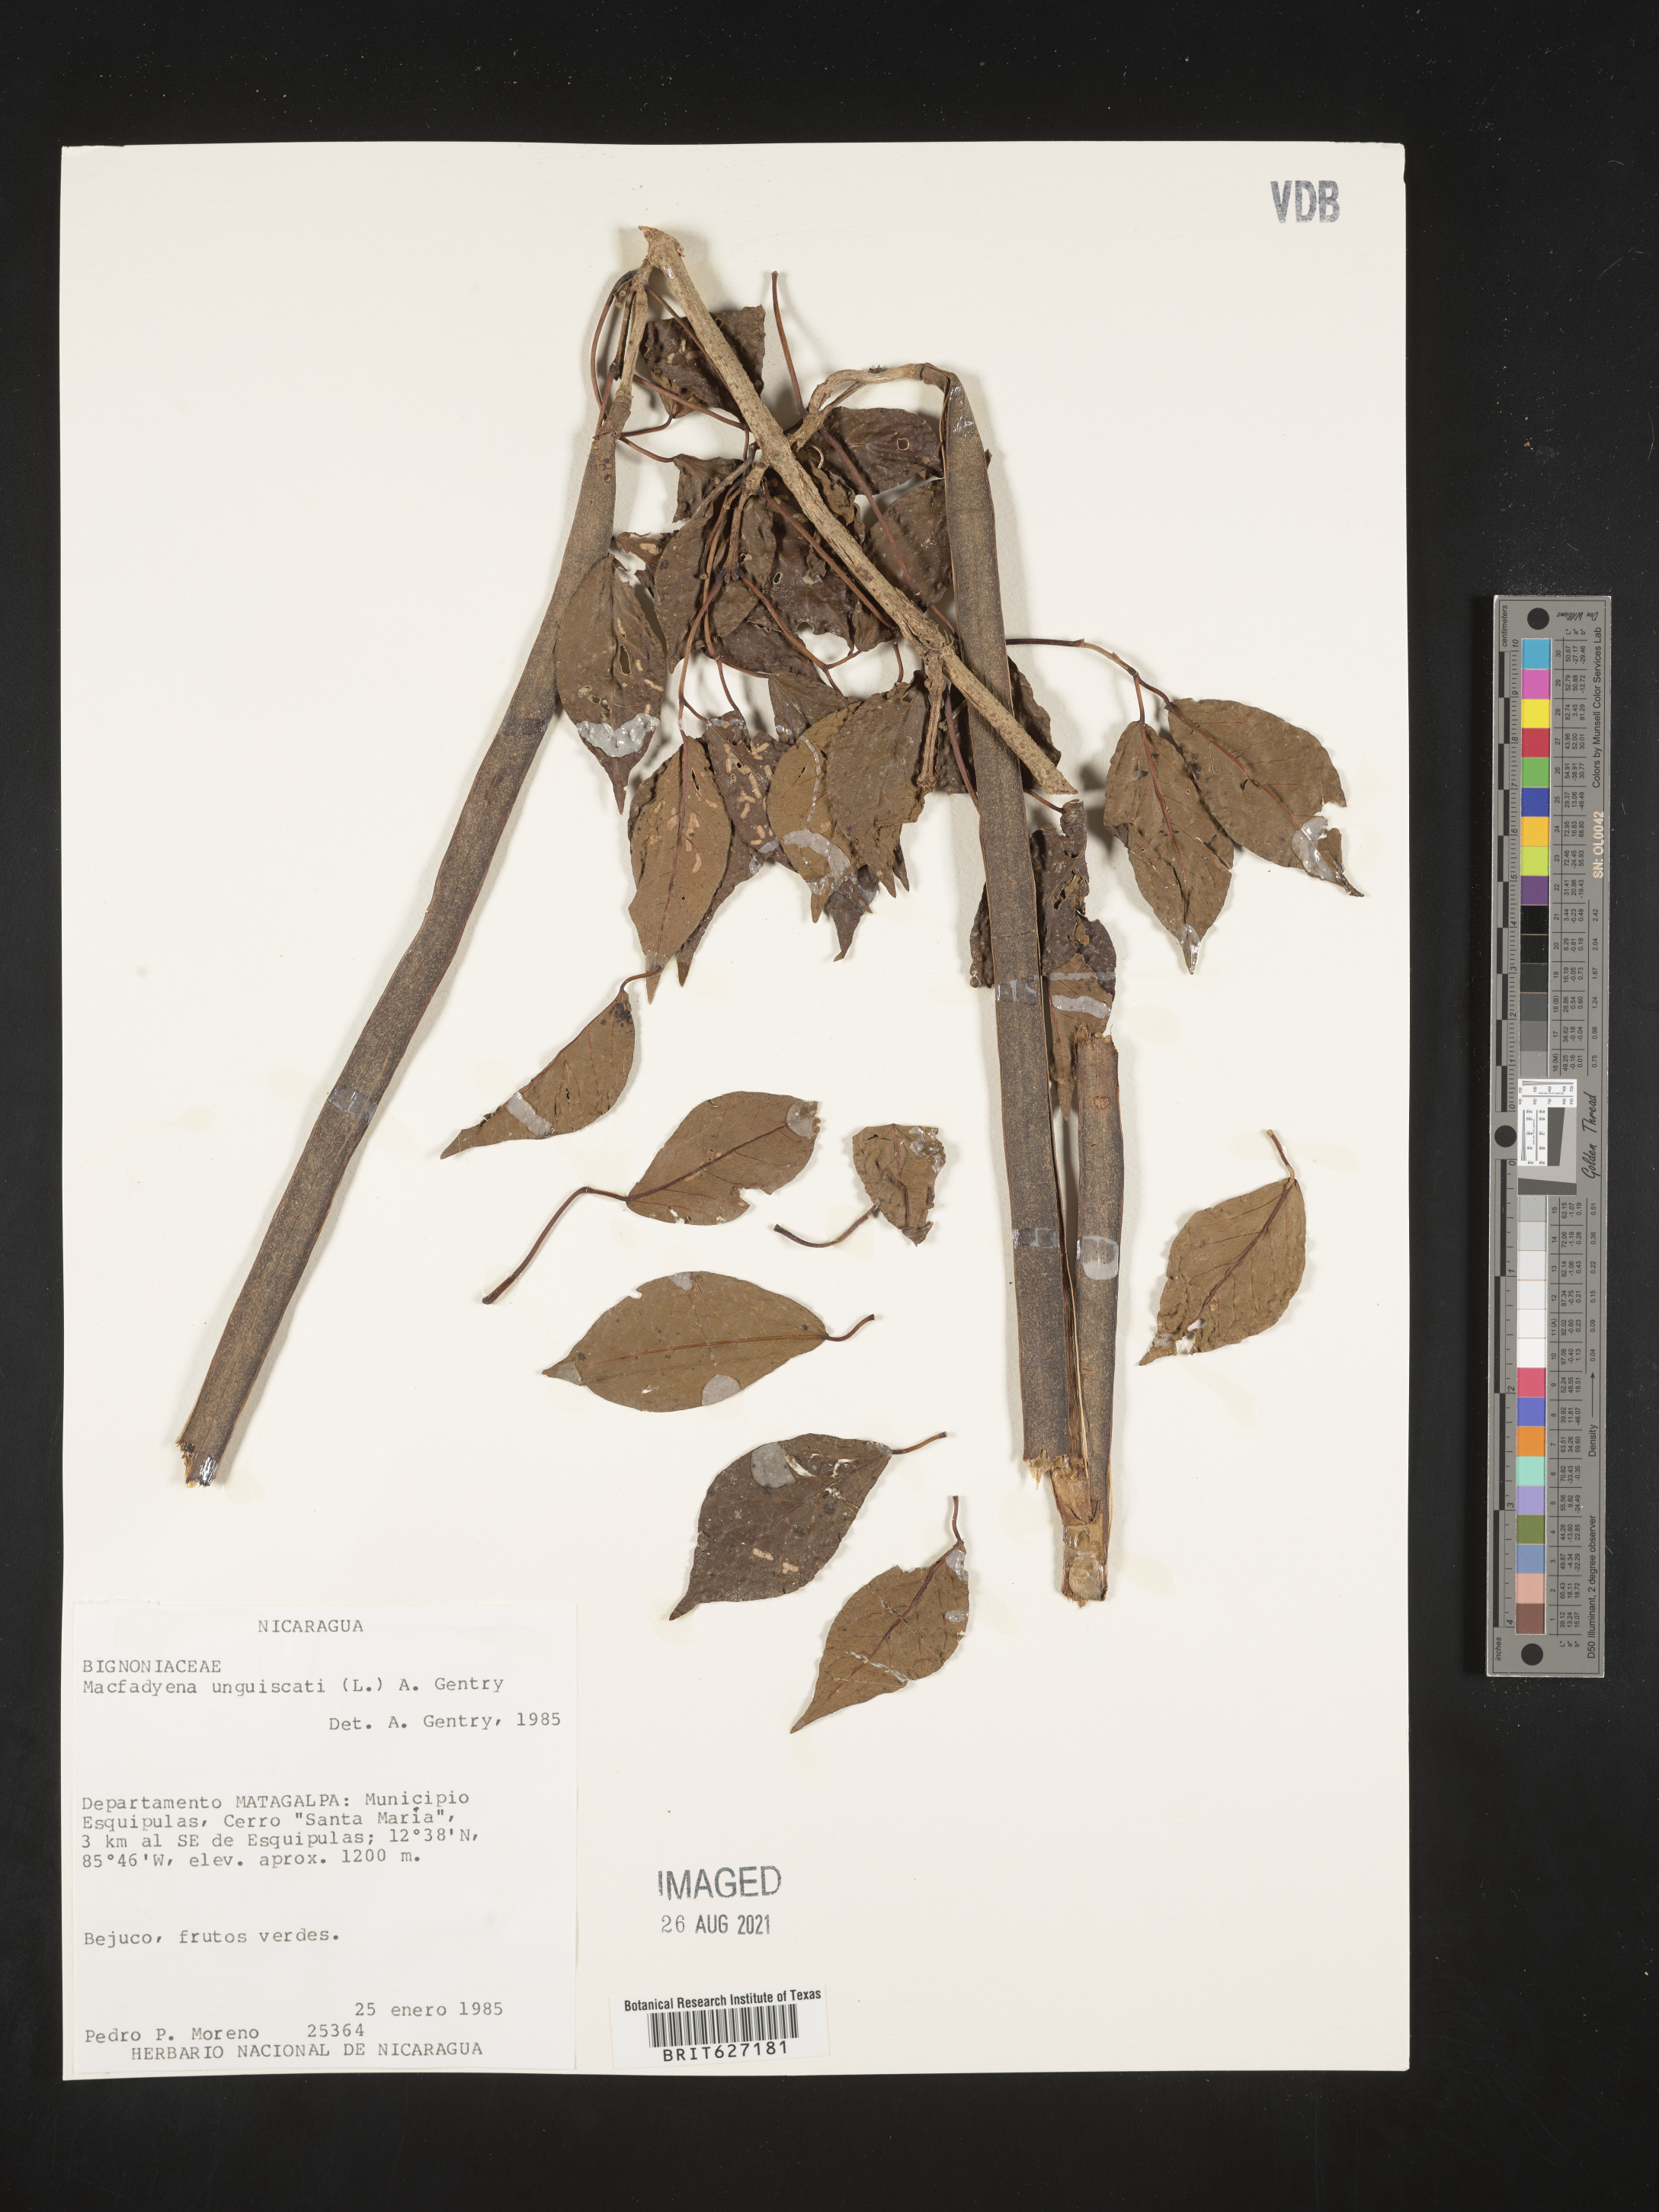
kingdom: Plantae
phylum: Tracheophyta
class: Magnoliopsida
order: Lamiales
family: Bignoniaceae
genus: Dolichandra
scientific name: Dolichandra unguis-cati
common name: Catclaw vine
